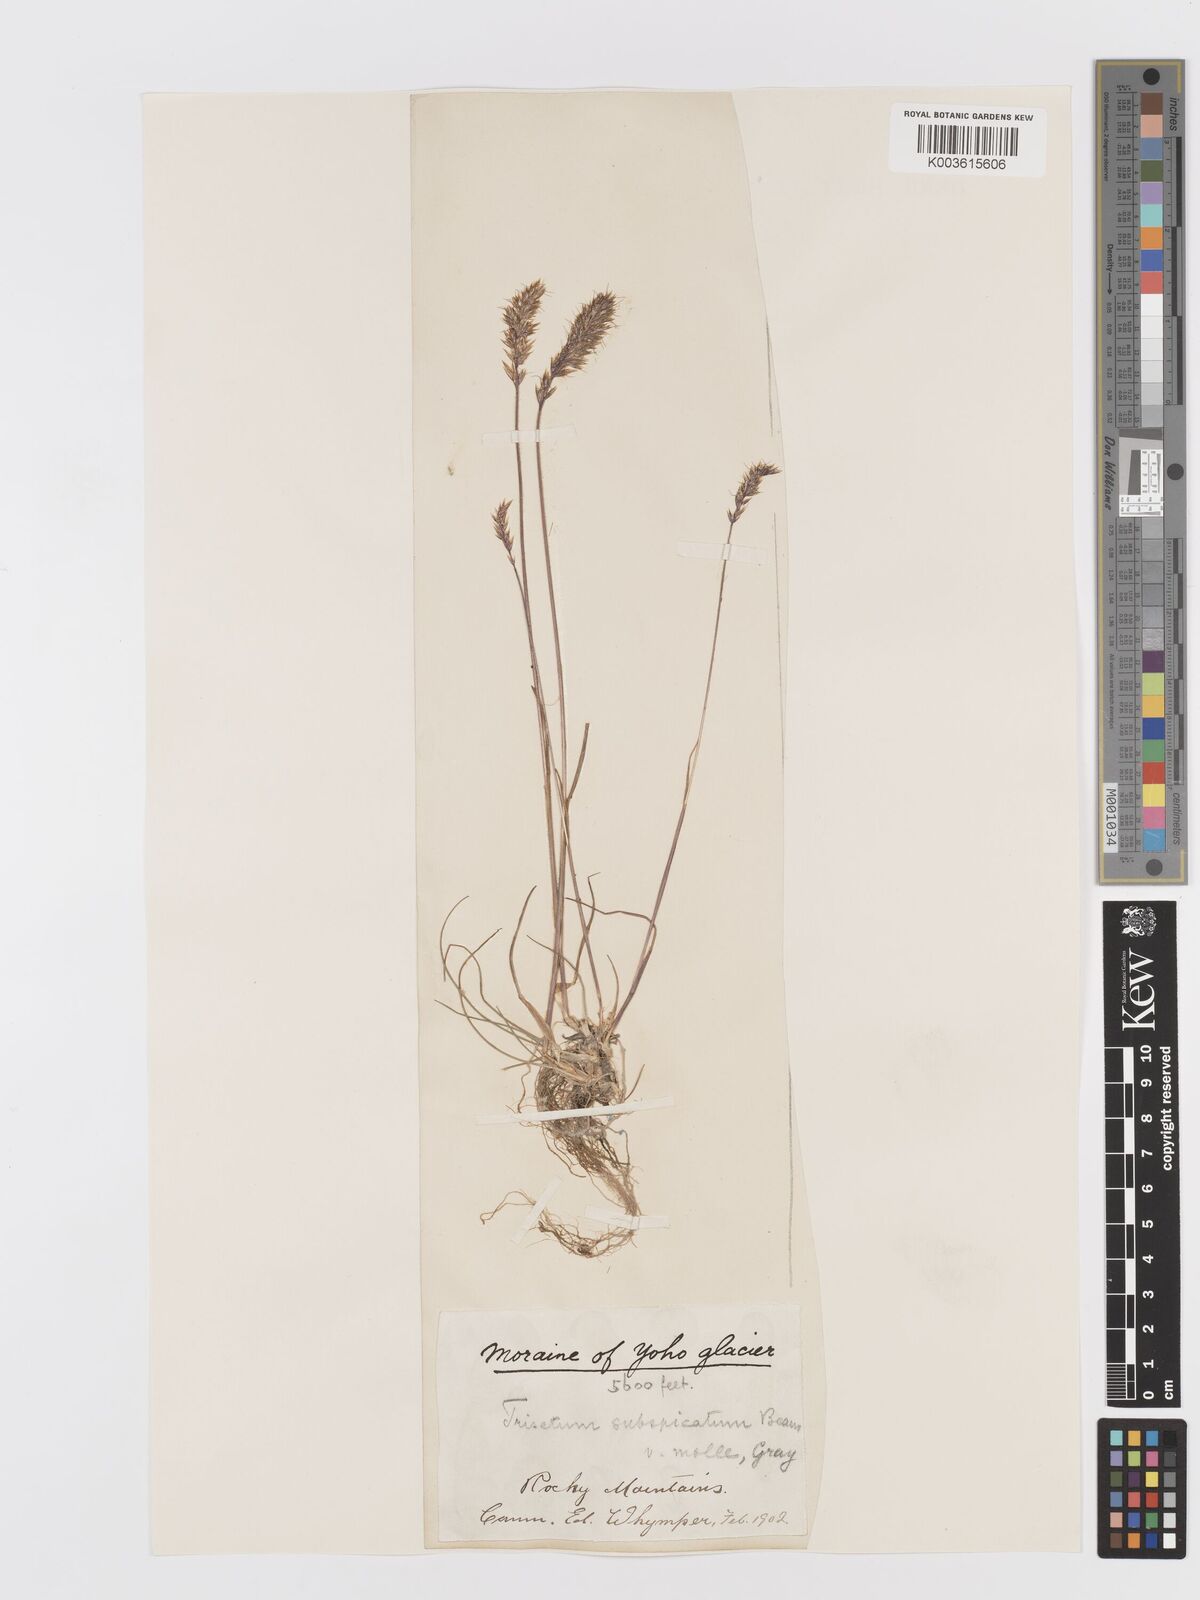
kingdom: Plantae
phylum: Tracheophyta
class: Liliopsida
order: Poales
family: Poaceae
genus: Koeleria
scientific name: Koeleria spicata
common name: Mountain trisetum
